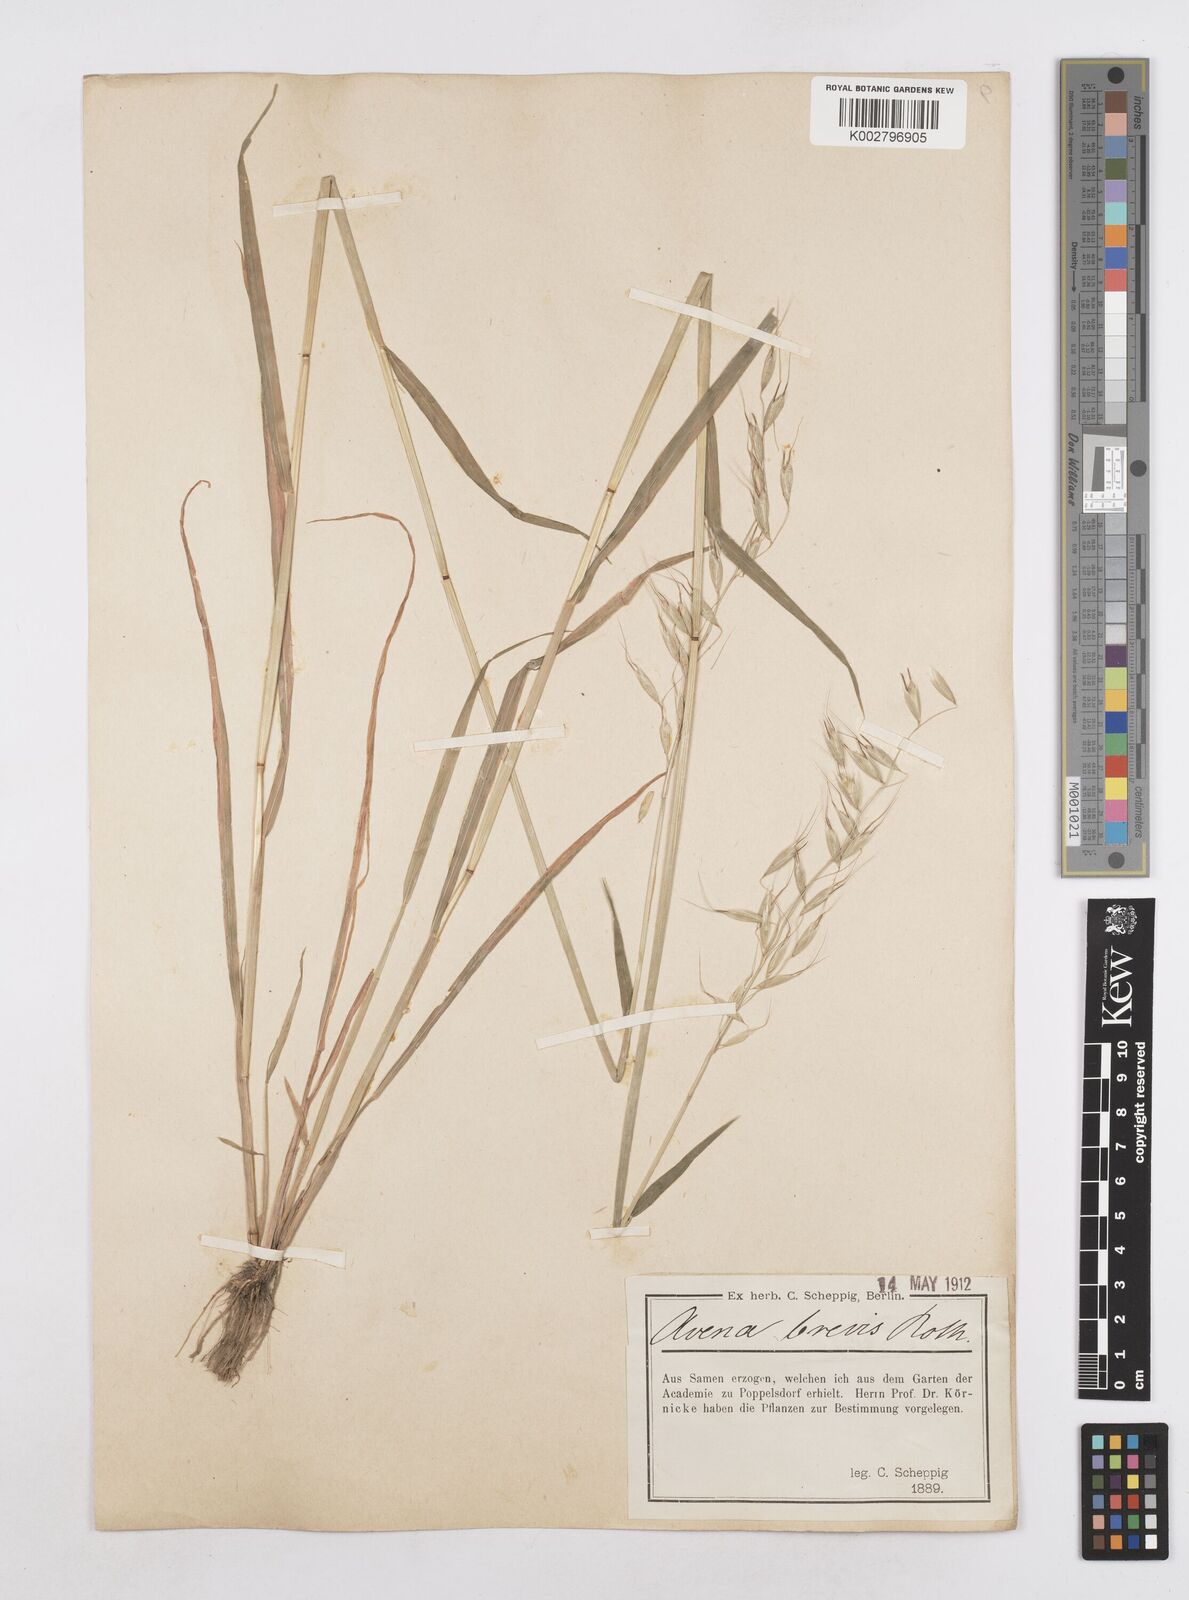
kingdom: Plantae
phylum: Tracheophyta
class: Liliopsida
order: Poales
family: Poaceae
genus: Avena
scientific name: Avena brevis
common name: Short oat
